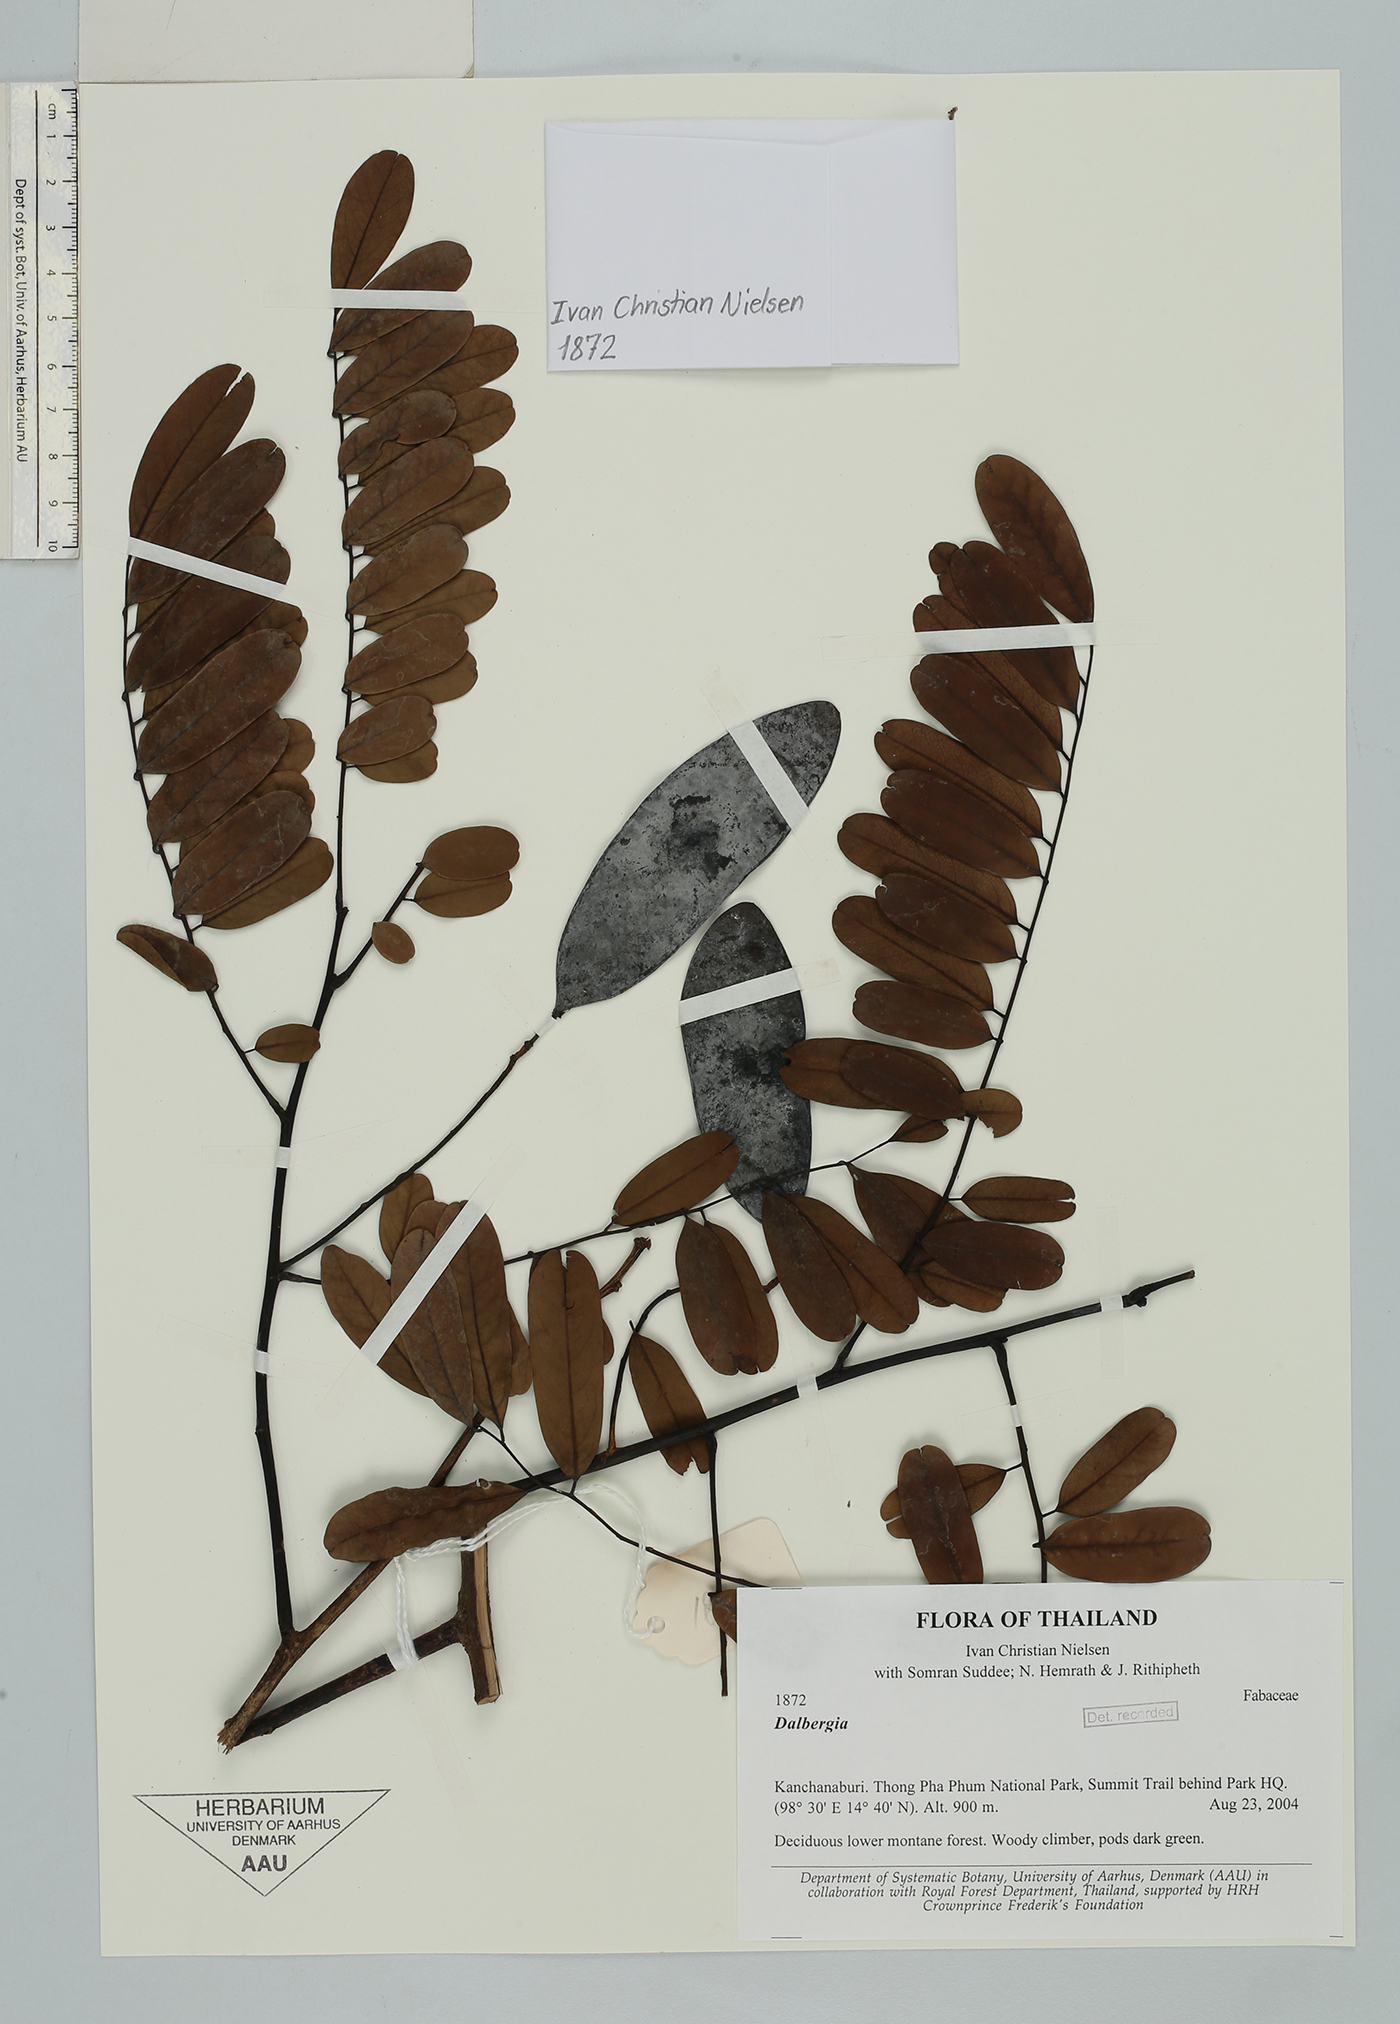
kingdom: Plantae
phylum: Tracheophyta
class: Magnoliopsida
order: Fabales
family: Fabaceae
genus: Dalbergia
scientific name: Dalbergia
